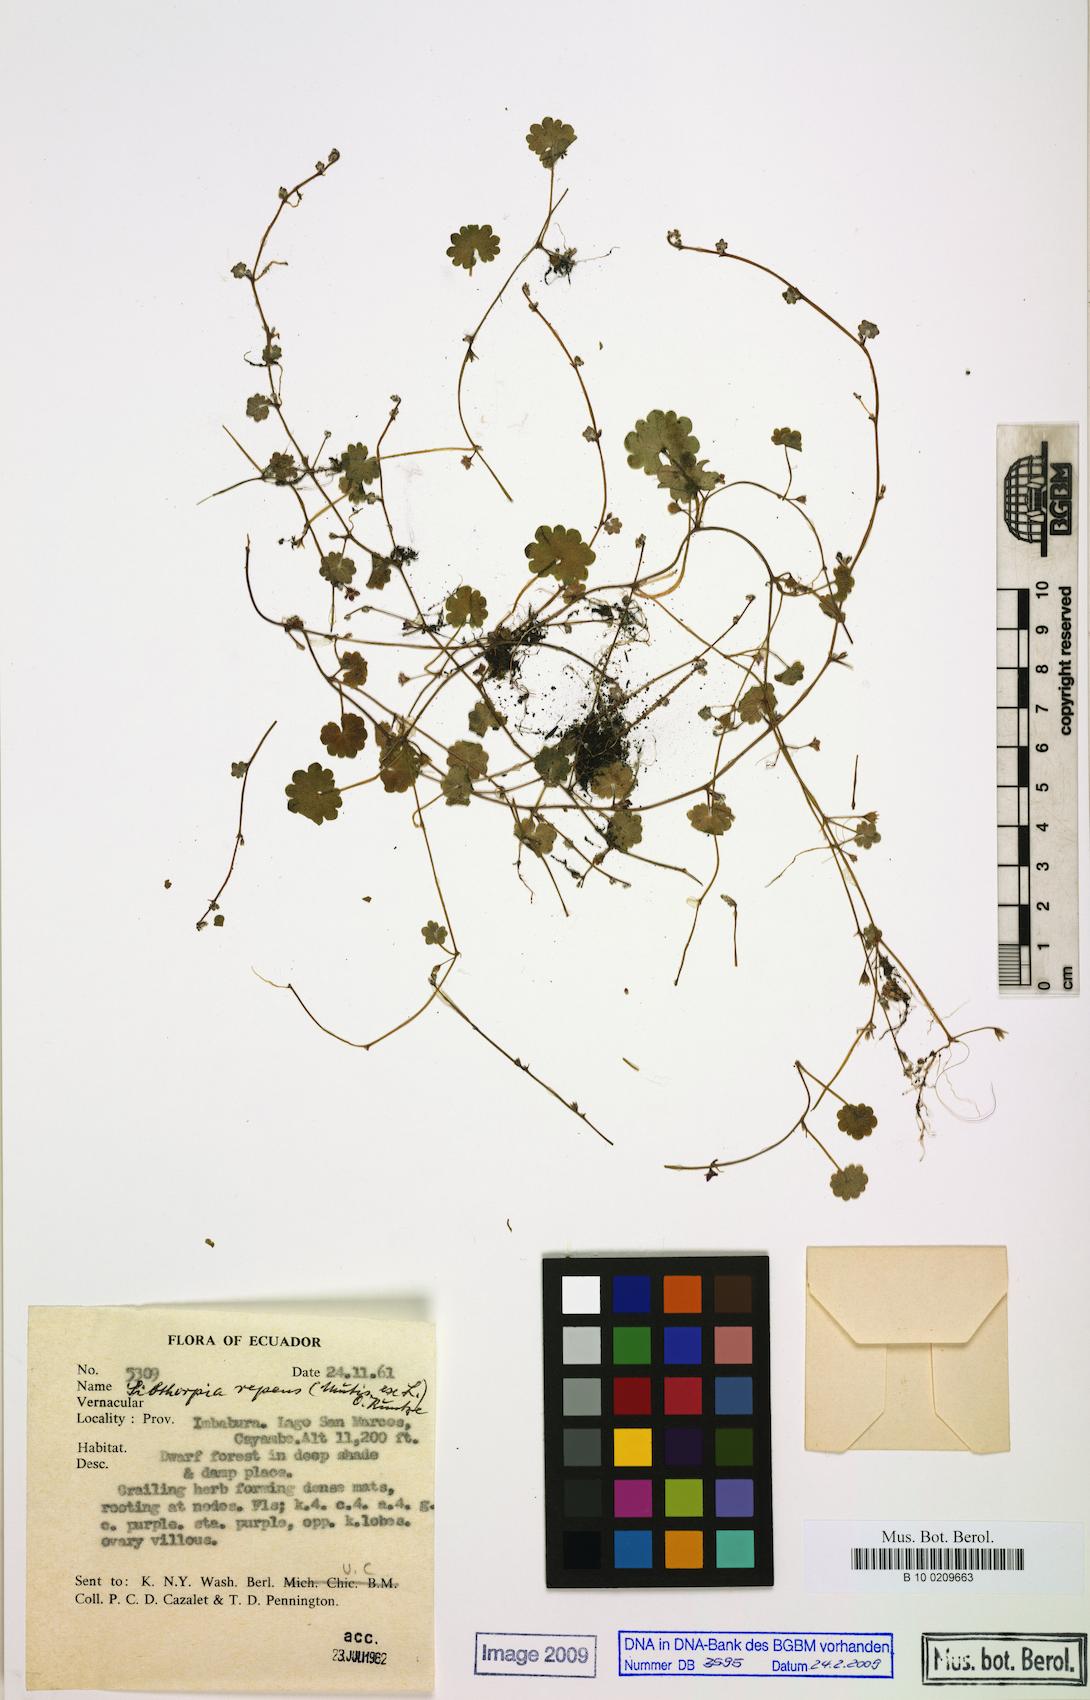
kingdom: Plantae
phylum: Tracheophyta
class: Magnoliopsida
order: Lamiales
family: Plantaginaceae
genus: Sibthorpia
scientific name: Sibthorpia repens
